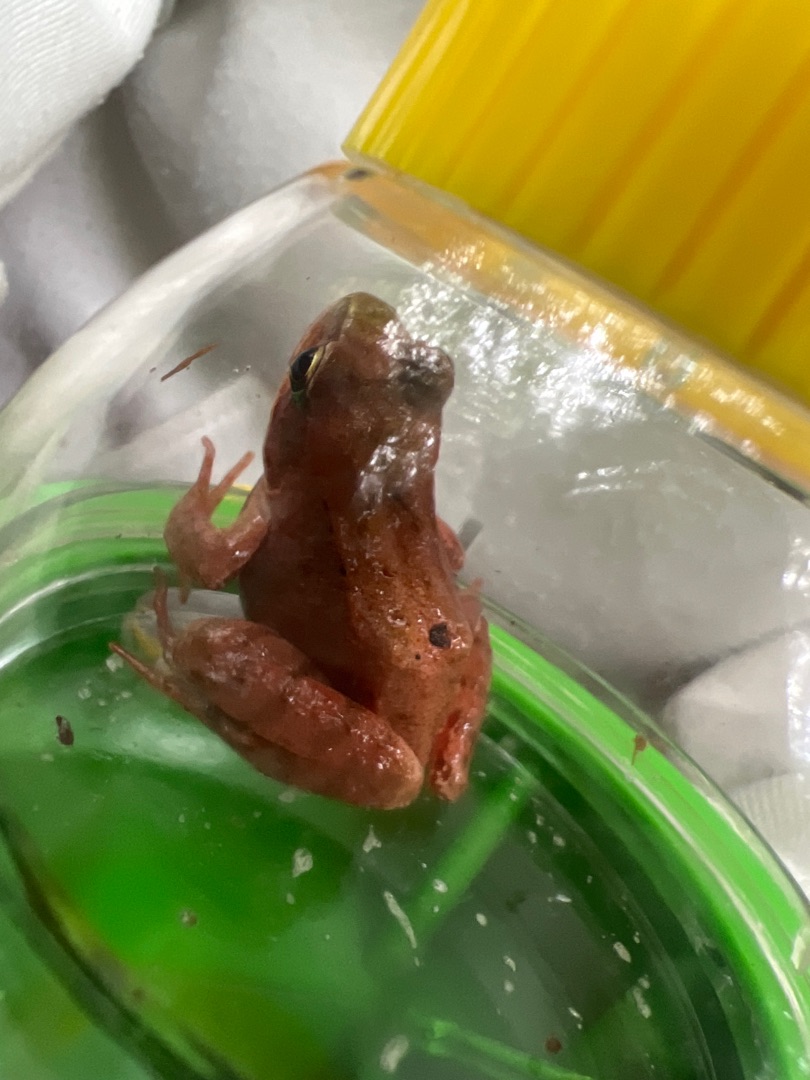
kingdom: Animalia
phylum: Chordata
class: Amphibia
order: Anura
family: Ranidae
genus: Rana
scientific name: Rana temporaria
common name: Butsnudet frø
